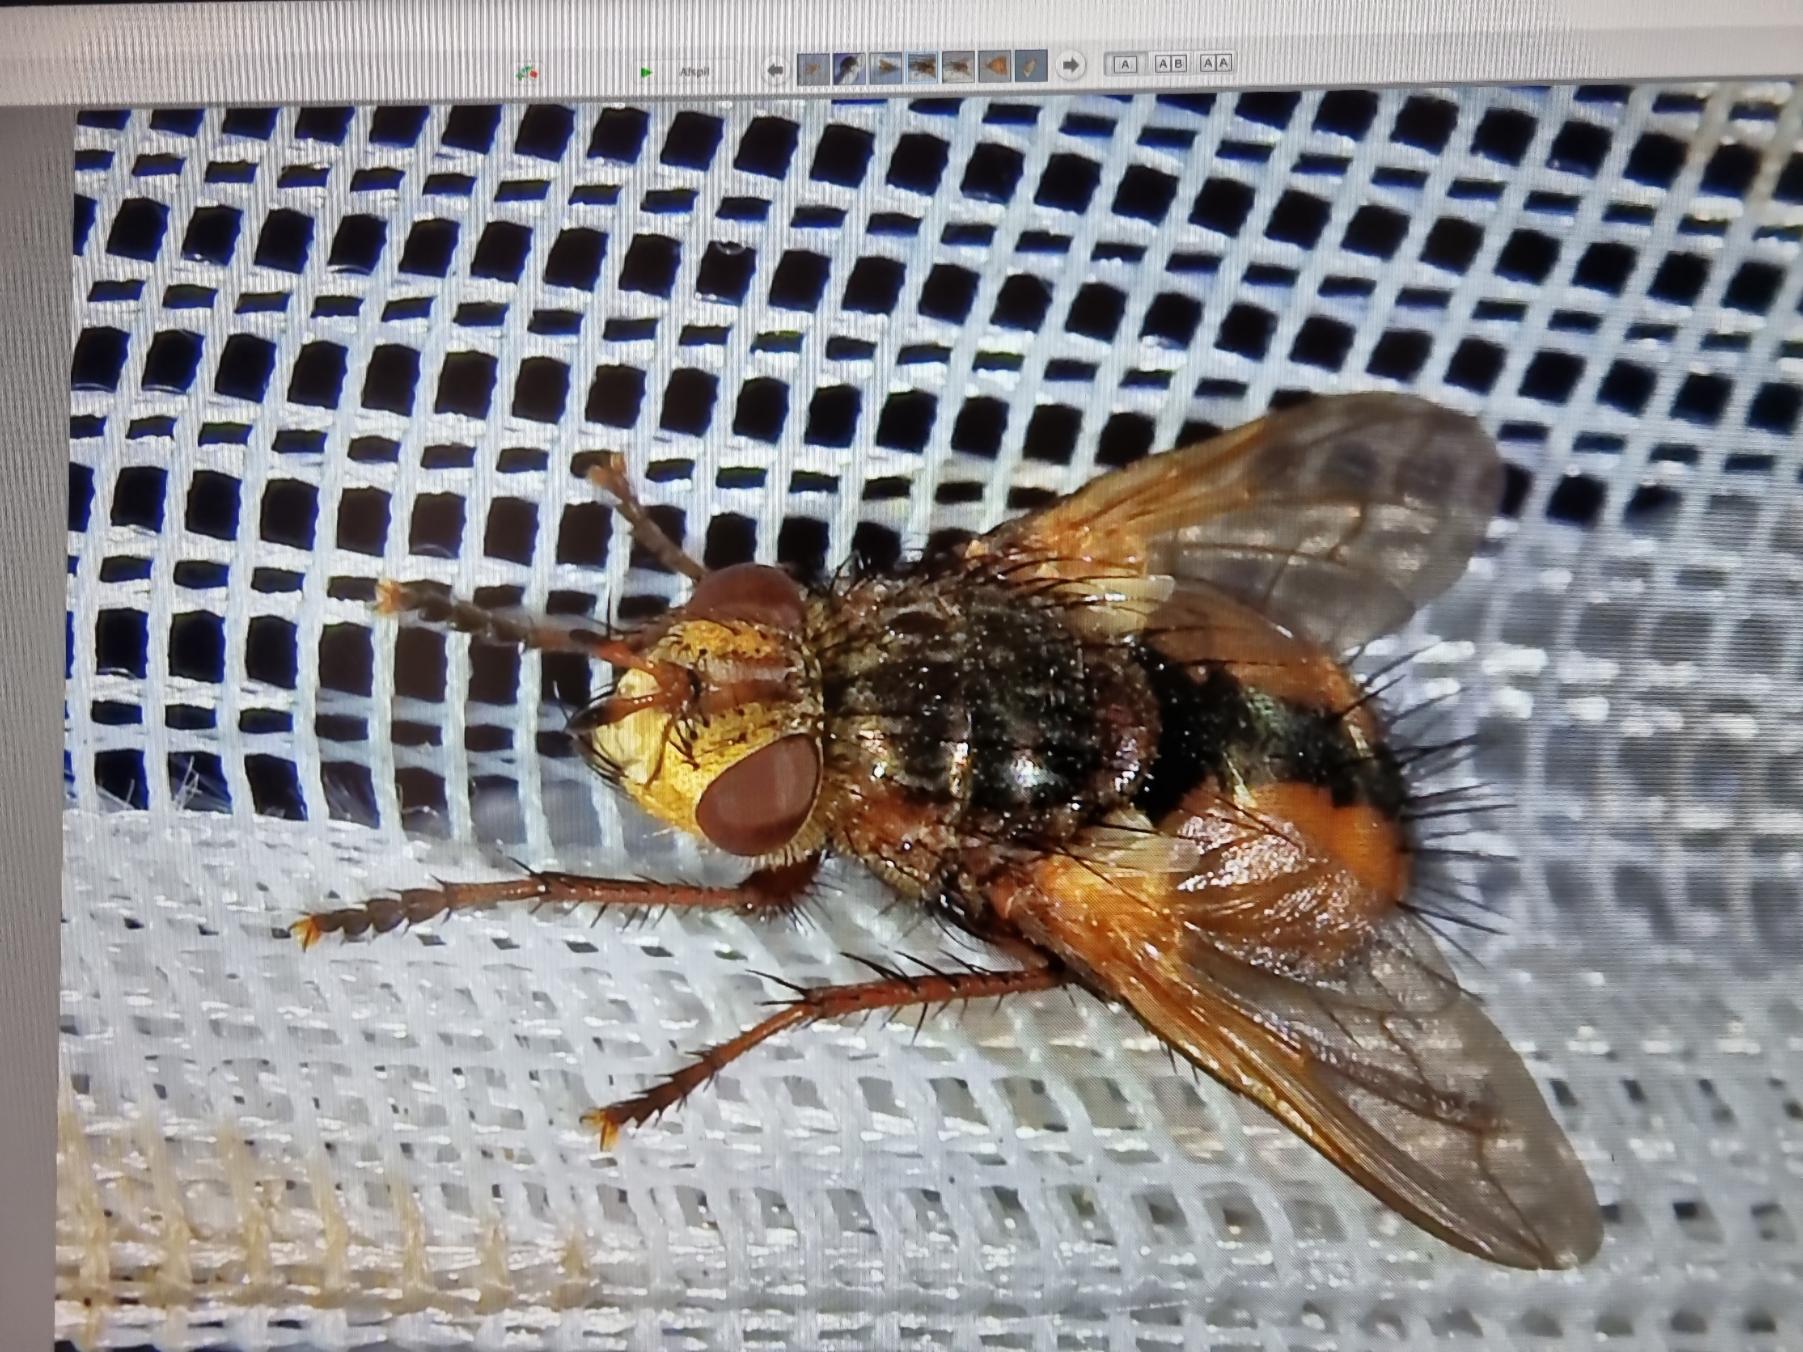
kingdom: Animalia
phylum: Arthropoda
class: Insecta
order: Diptera
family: Tachinidae
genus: Tachina
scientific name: Tachina fera
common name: Mellemfluen oskar
